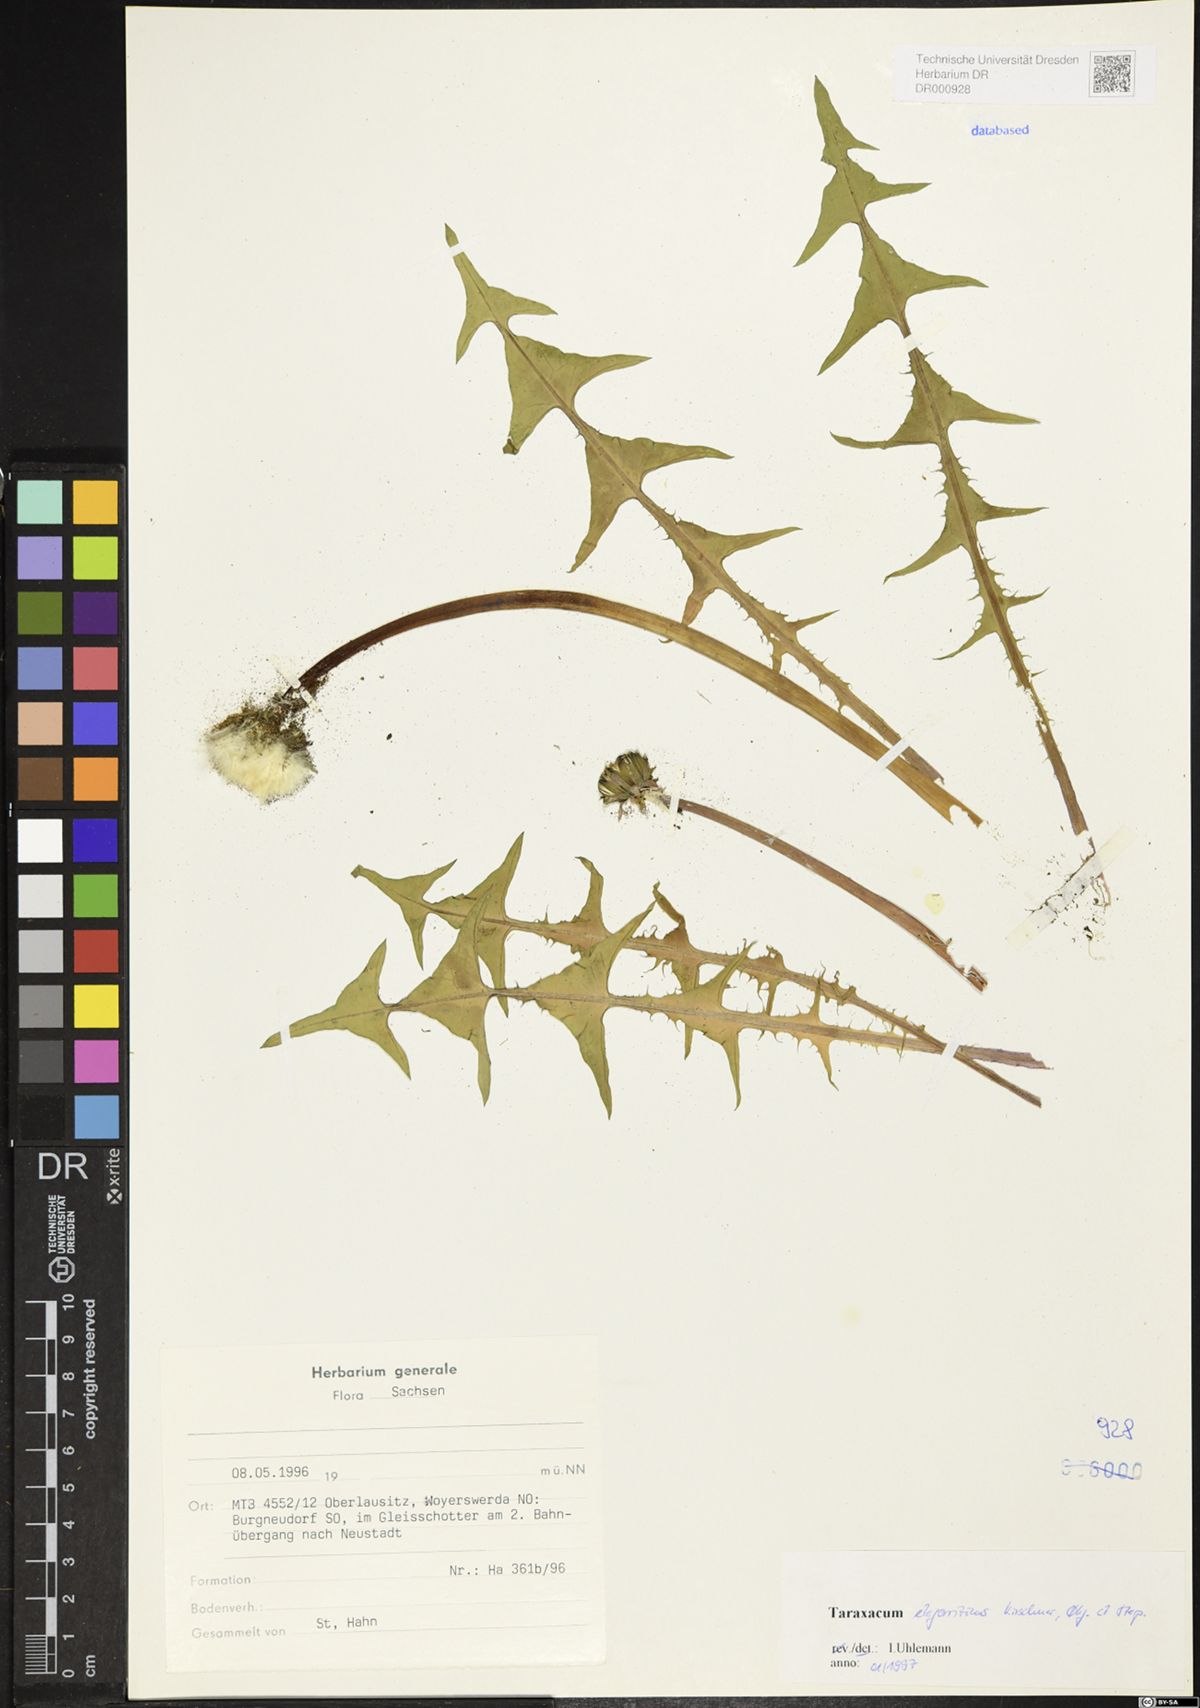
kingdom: Plantae
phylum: Tracheophyta
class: Magnoliopsida
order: Asterales
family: Asteraceae
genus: Taraxacum
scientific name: Taraxacum elegantius
